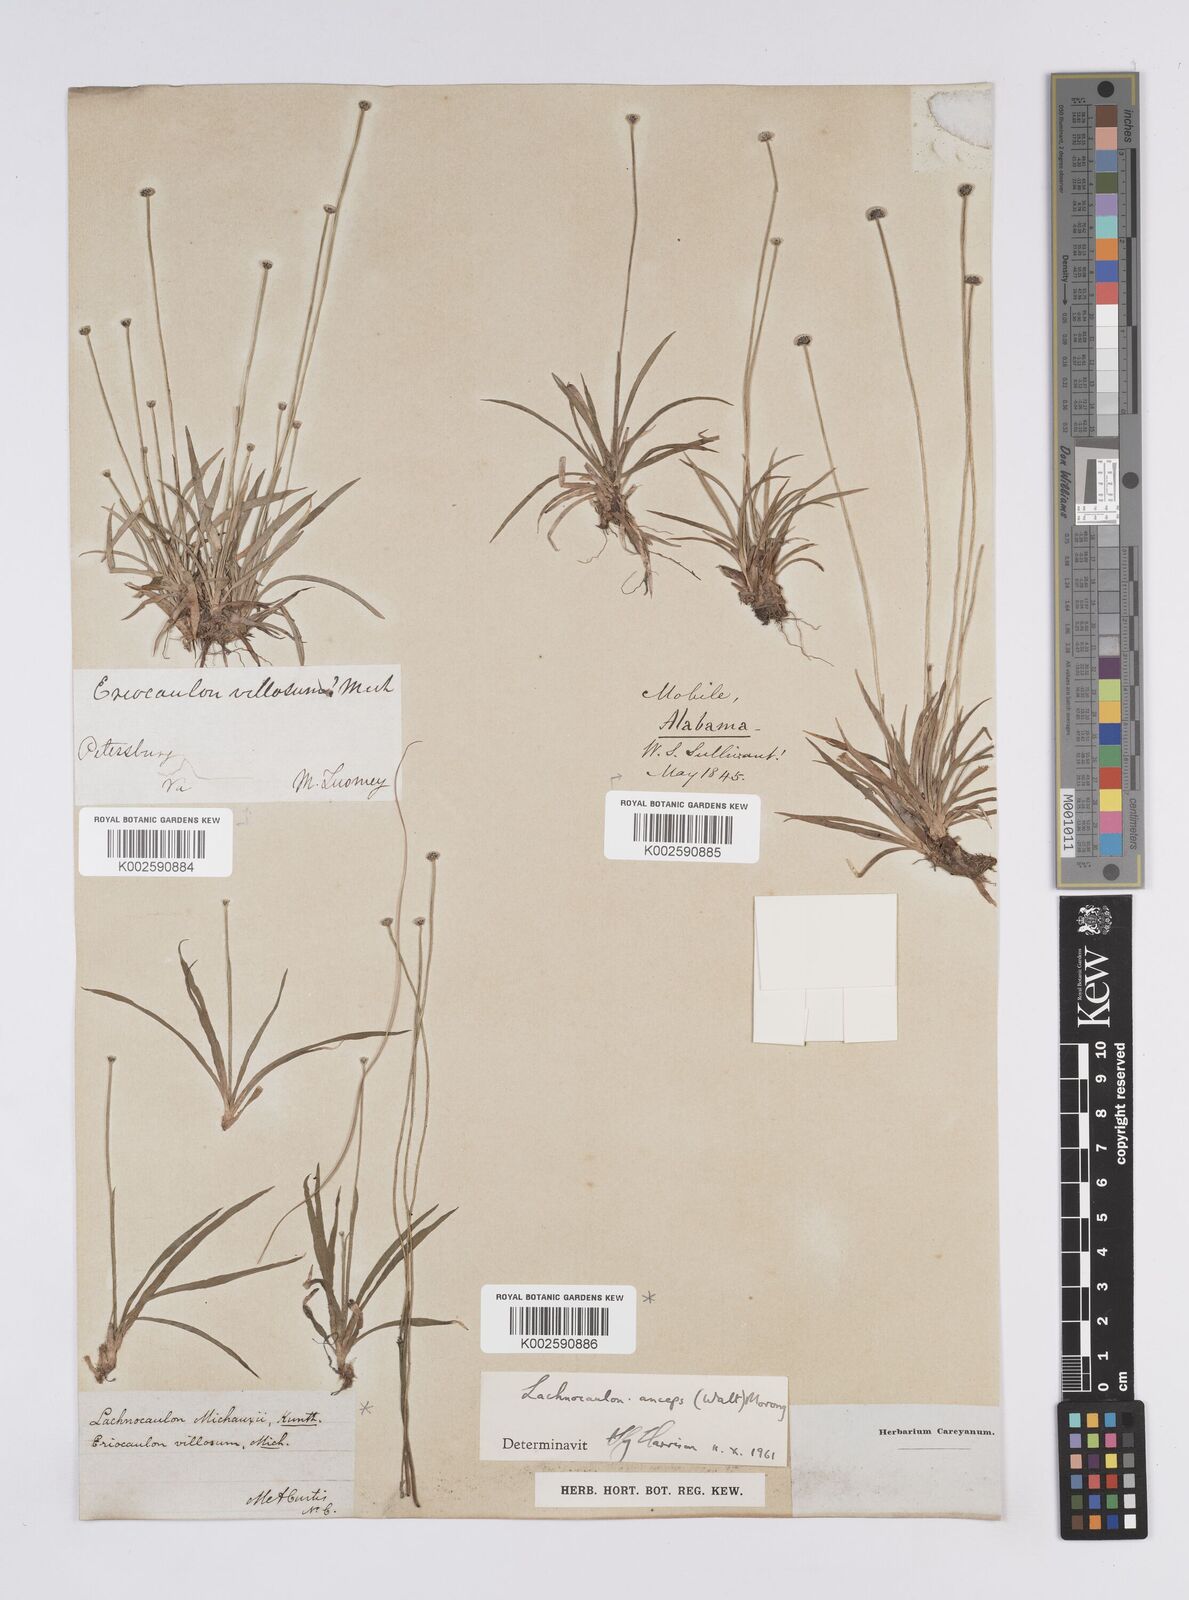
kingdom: Plantae
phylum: Tracheophyta
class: Liliopsida
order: Poales
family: Eriocaulaceae
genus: Paepalanthus
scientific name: Paepalanthus anceps
